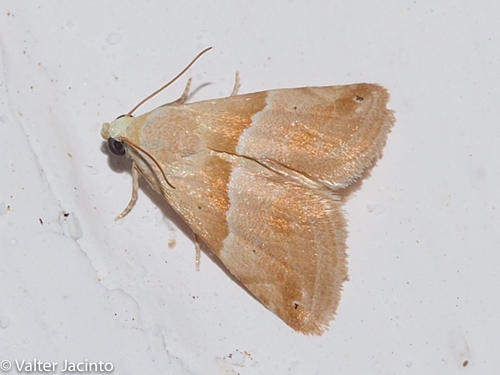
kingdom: Animalia
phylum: Arthropoda
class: Insecta
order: Lepidoptera
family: Noctuidae
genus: Eublemma
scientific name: Eublemma parva
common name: Small marbled
